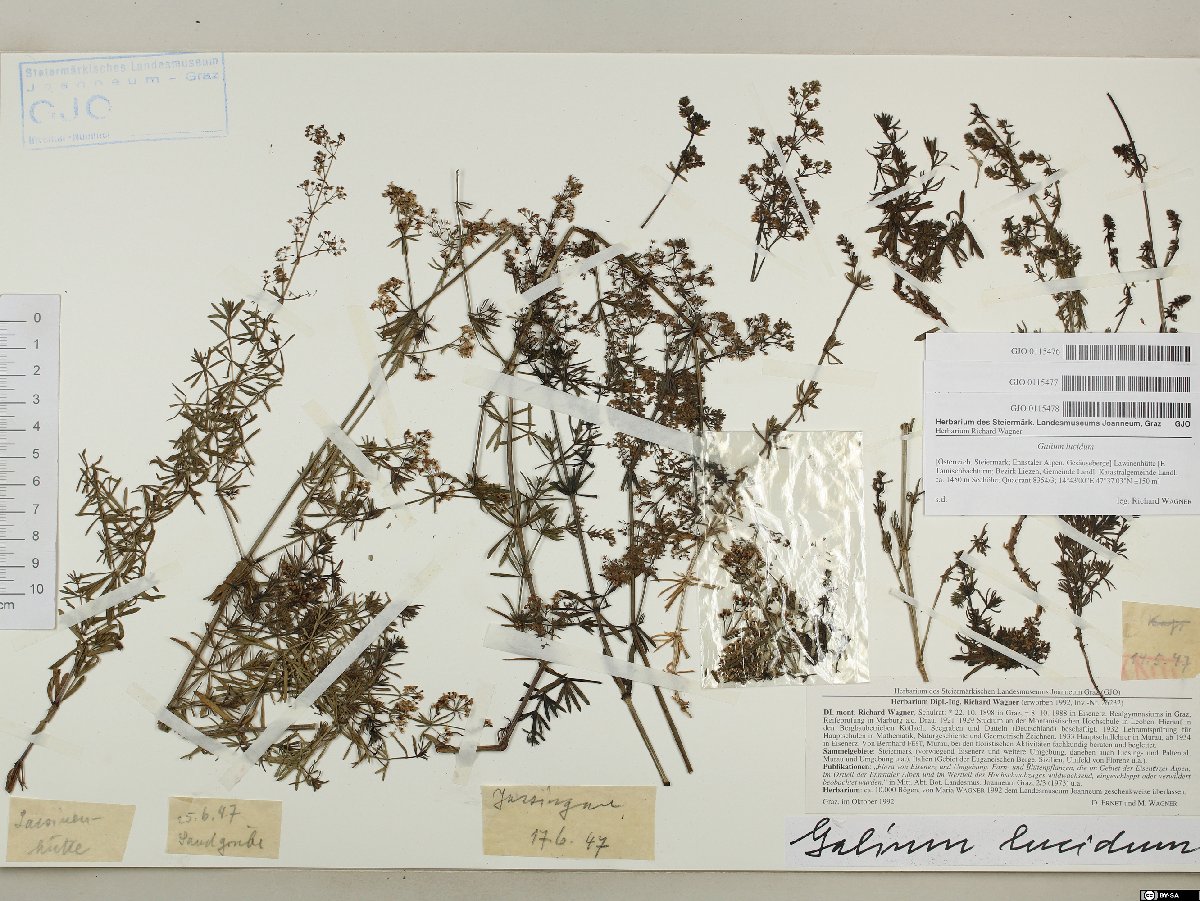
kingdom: Plantae
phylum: Tracheophyta
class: Magnoliopsida
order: Gentianales
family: Rubiaceae
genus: Galium
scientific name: Galium lucidum
